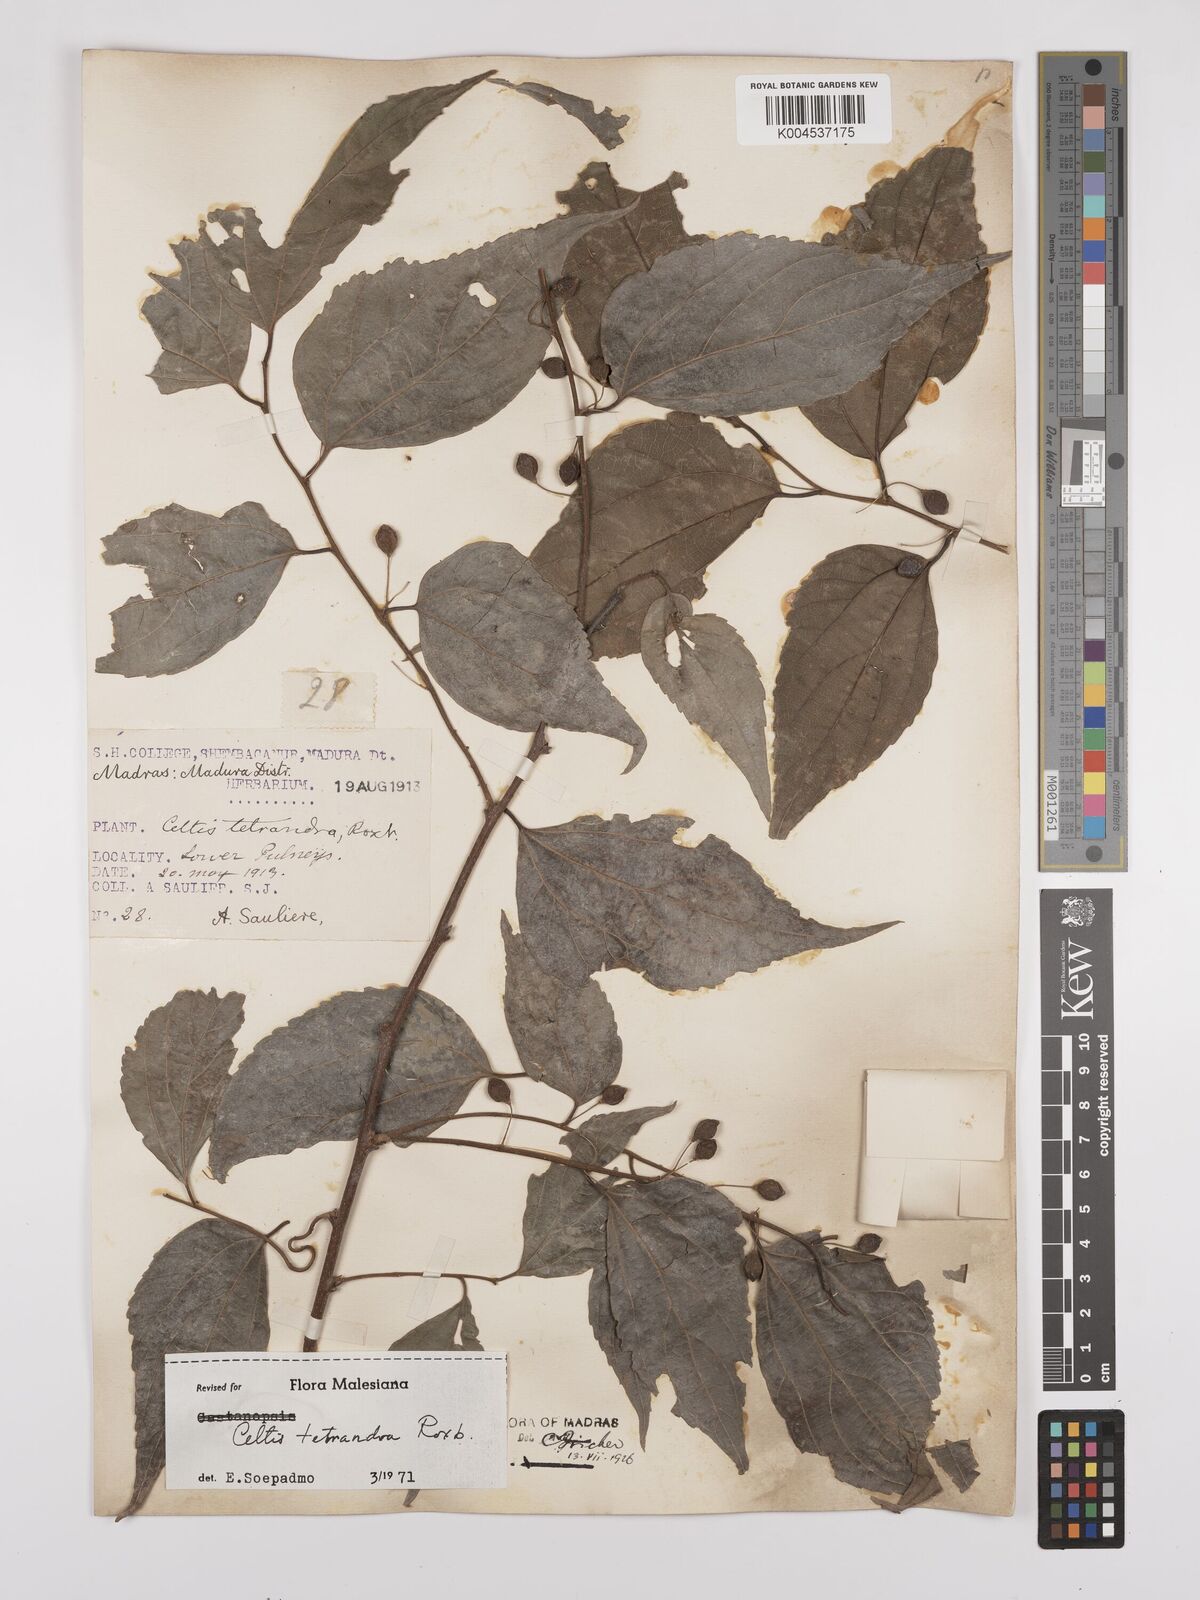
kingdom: Plantae
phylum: Tracheophyta
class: Magnoliopsida
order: Rosales
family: Cannabaceae
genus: Celtis
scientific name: Celtis tetrandra
